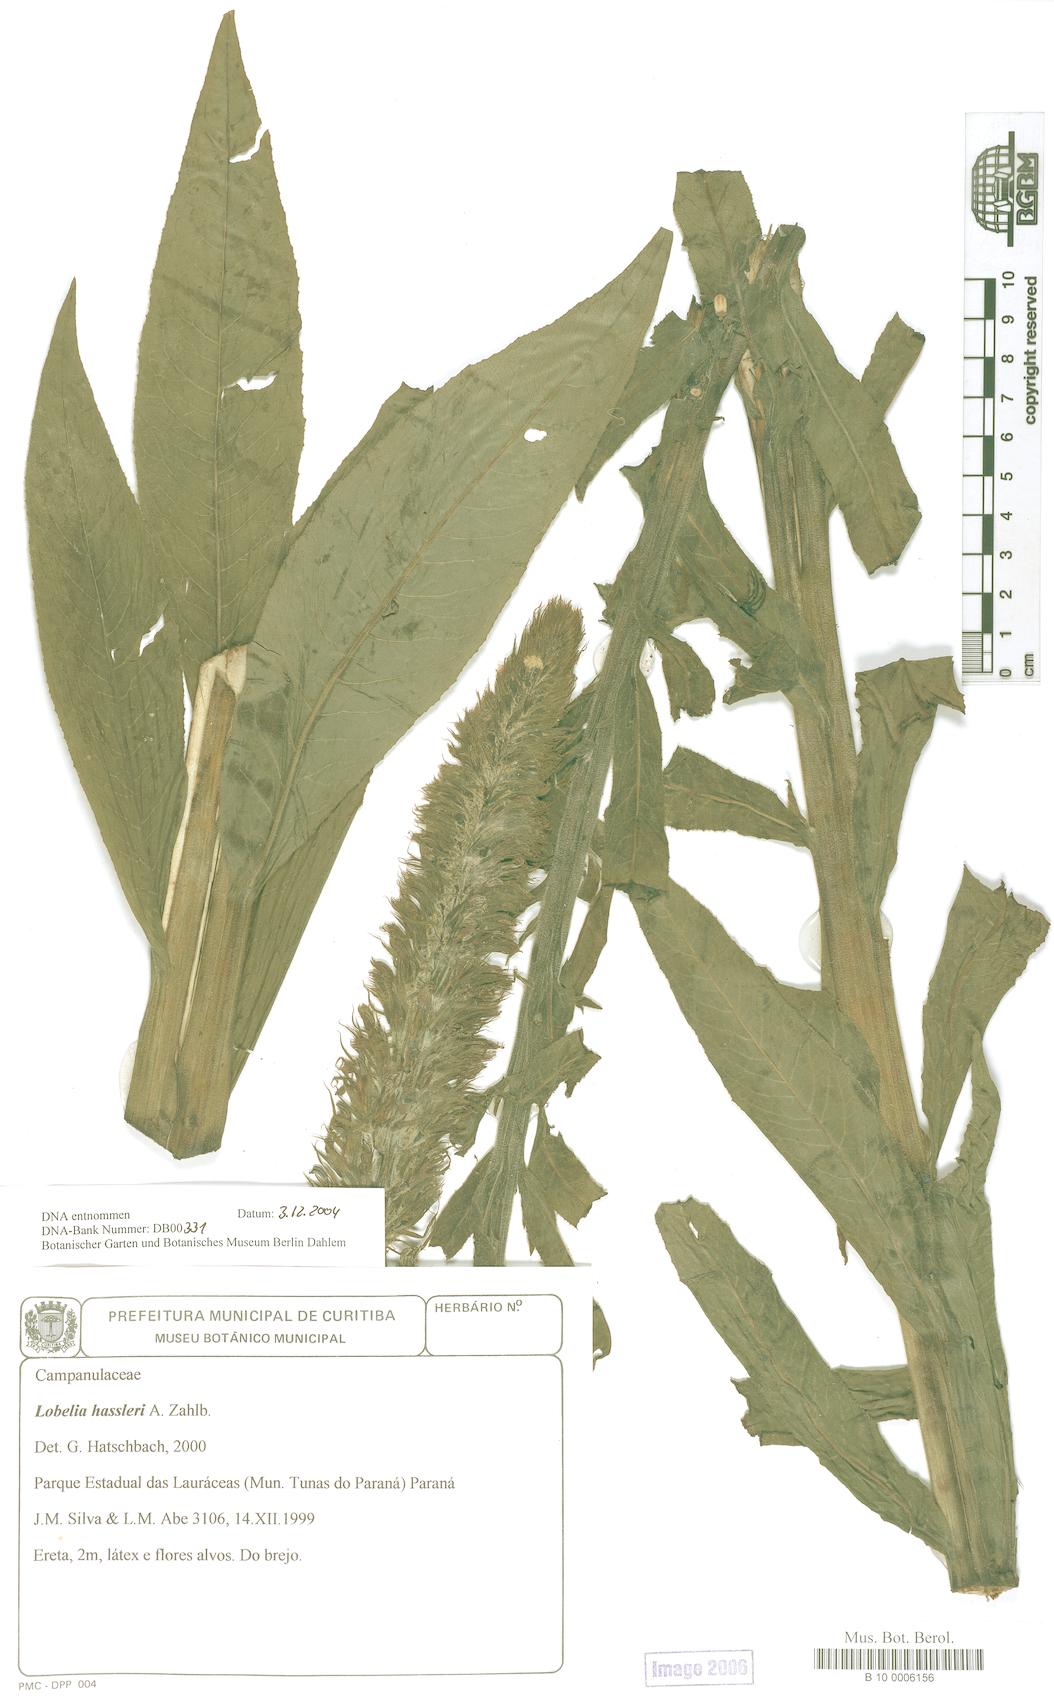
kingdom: Plantae
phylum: Tracheophyta
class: Magnoliopsida
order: Asterales
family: Campanulaceae
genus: Lobelia
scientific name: Lobelia hassleri
